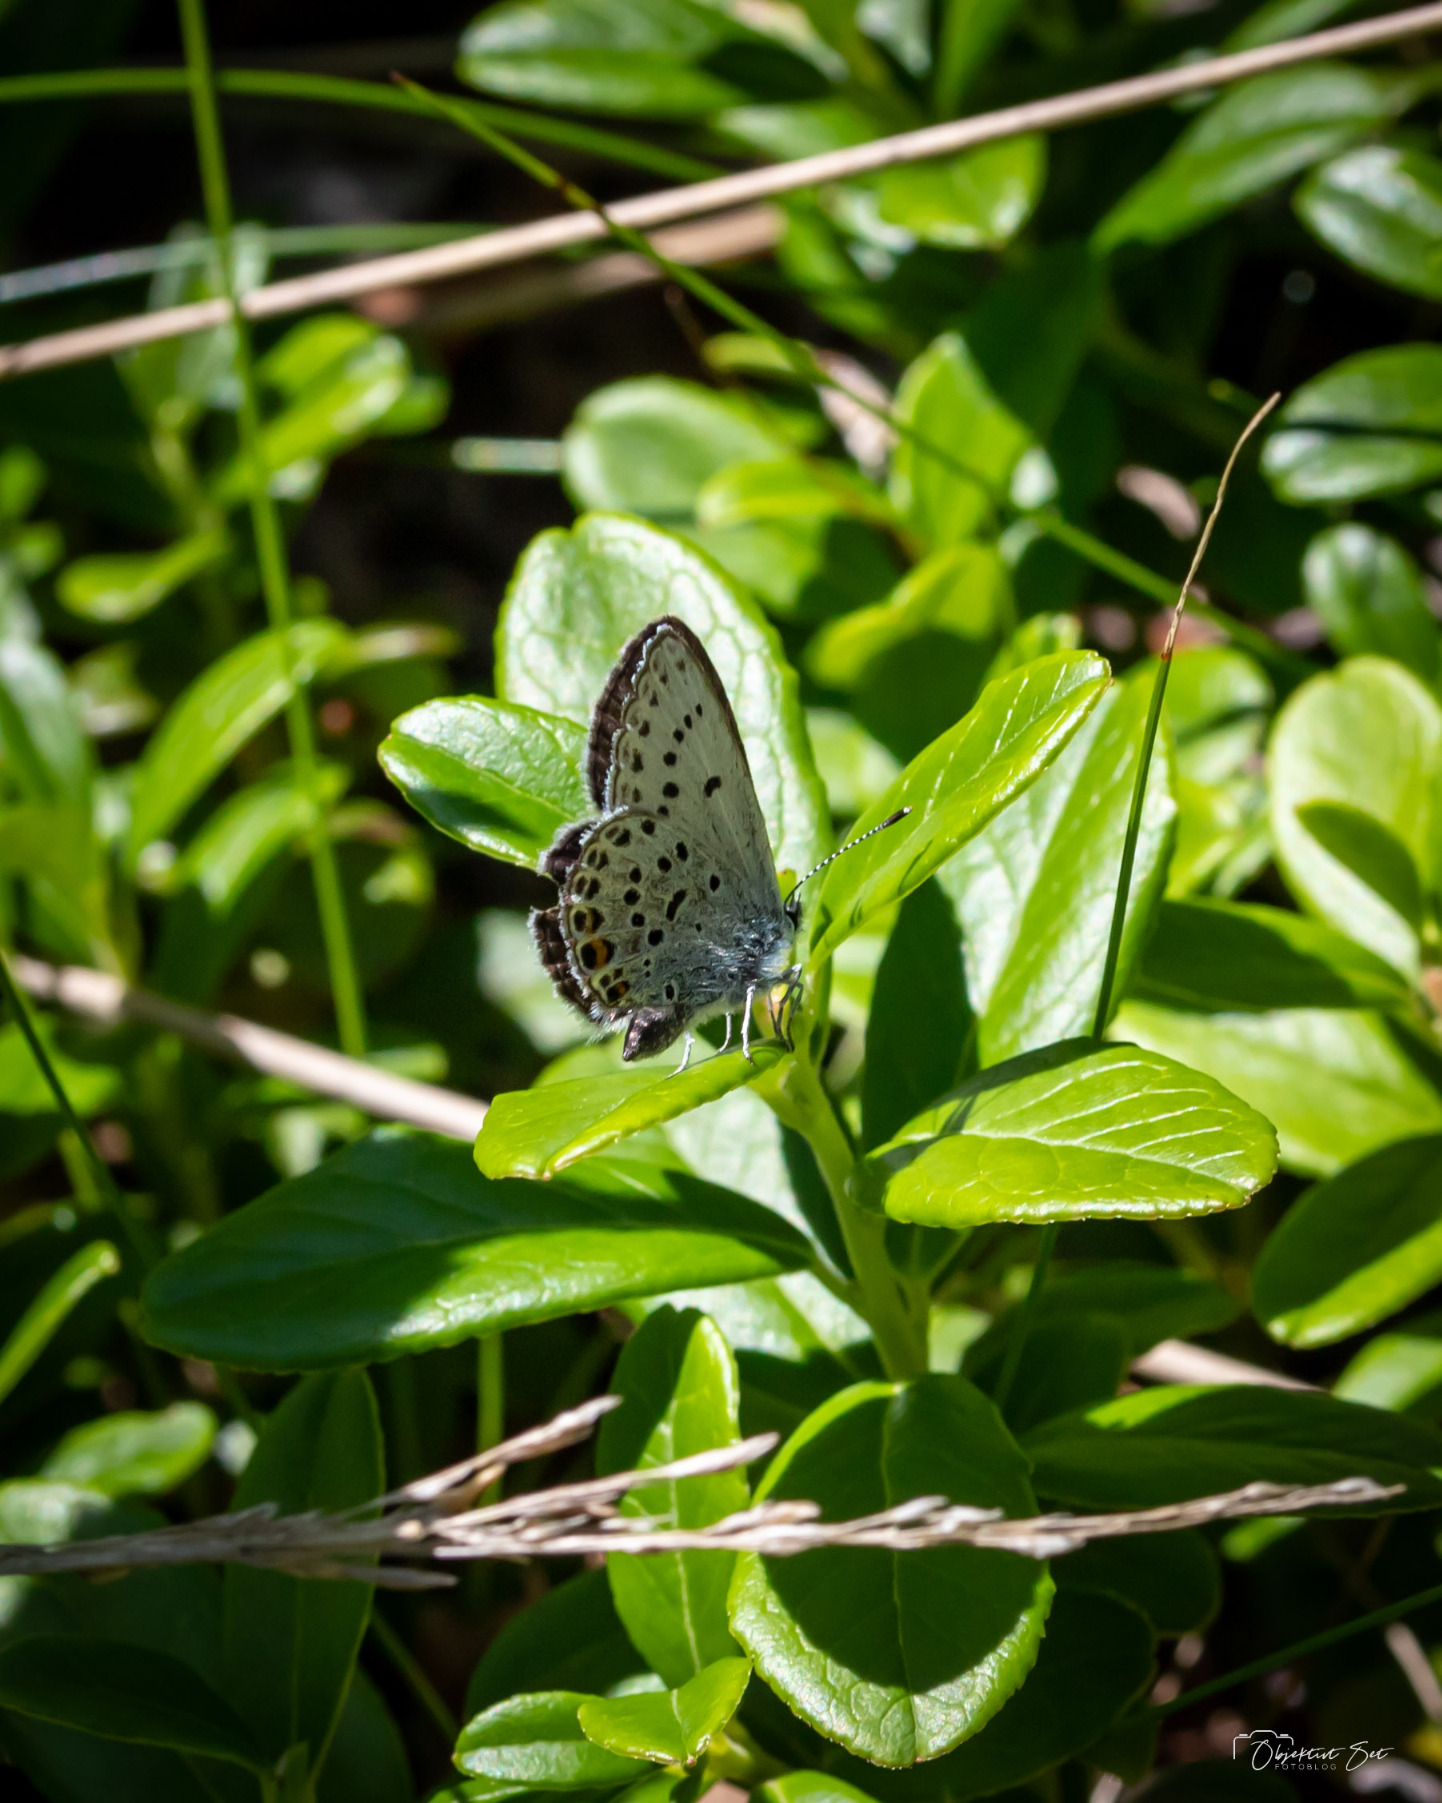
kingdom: Animalia
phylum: Arthropoda
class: Insecta
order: Lepidoptera
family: Lycaenidae
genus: Vacciniina
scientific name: Vacciniina optilete
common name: Bølleblåfugl
